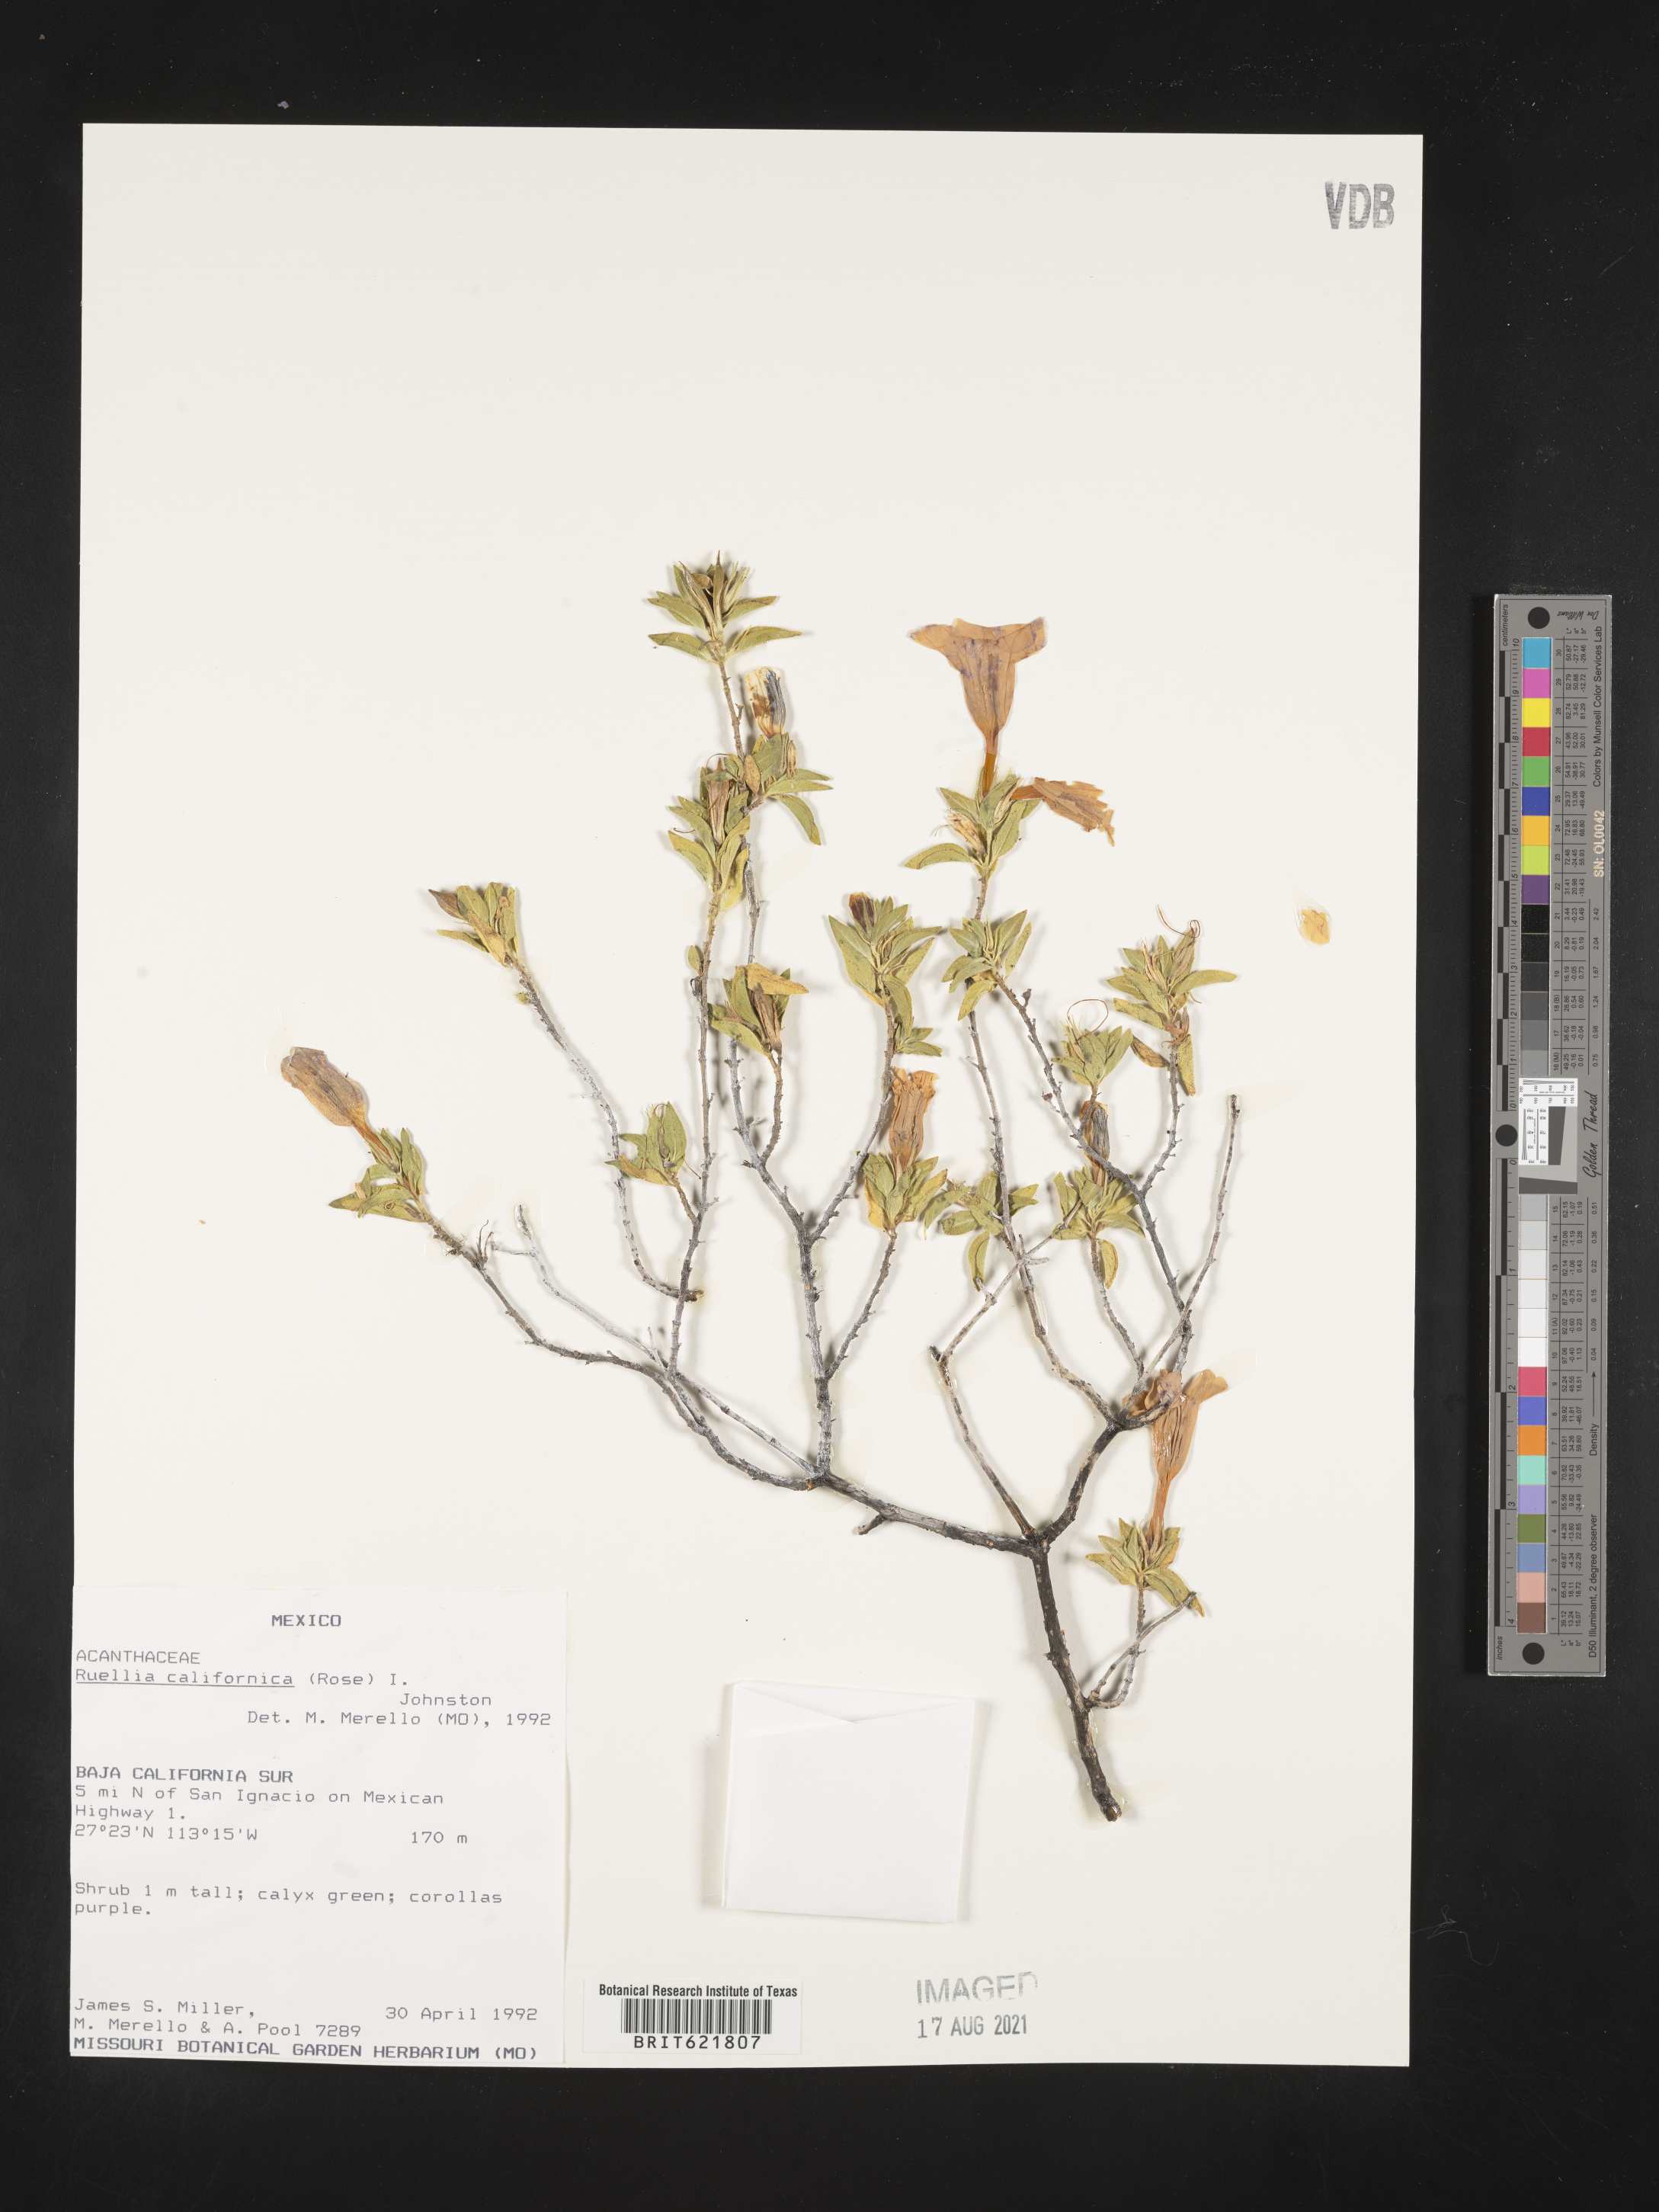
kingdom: Plantae
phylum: Tracheophyta
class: Magnoliopsida
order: Lamiales
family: Acanthaceae
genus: Ruellia
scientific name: Ruellia
